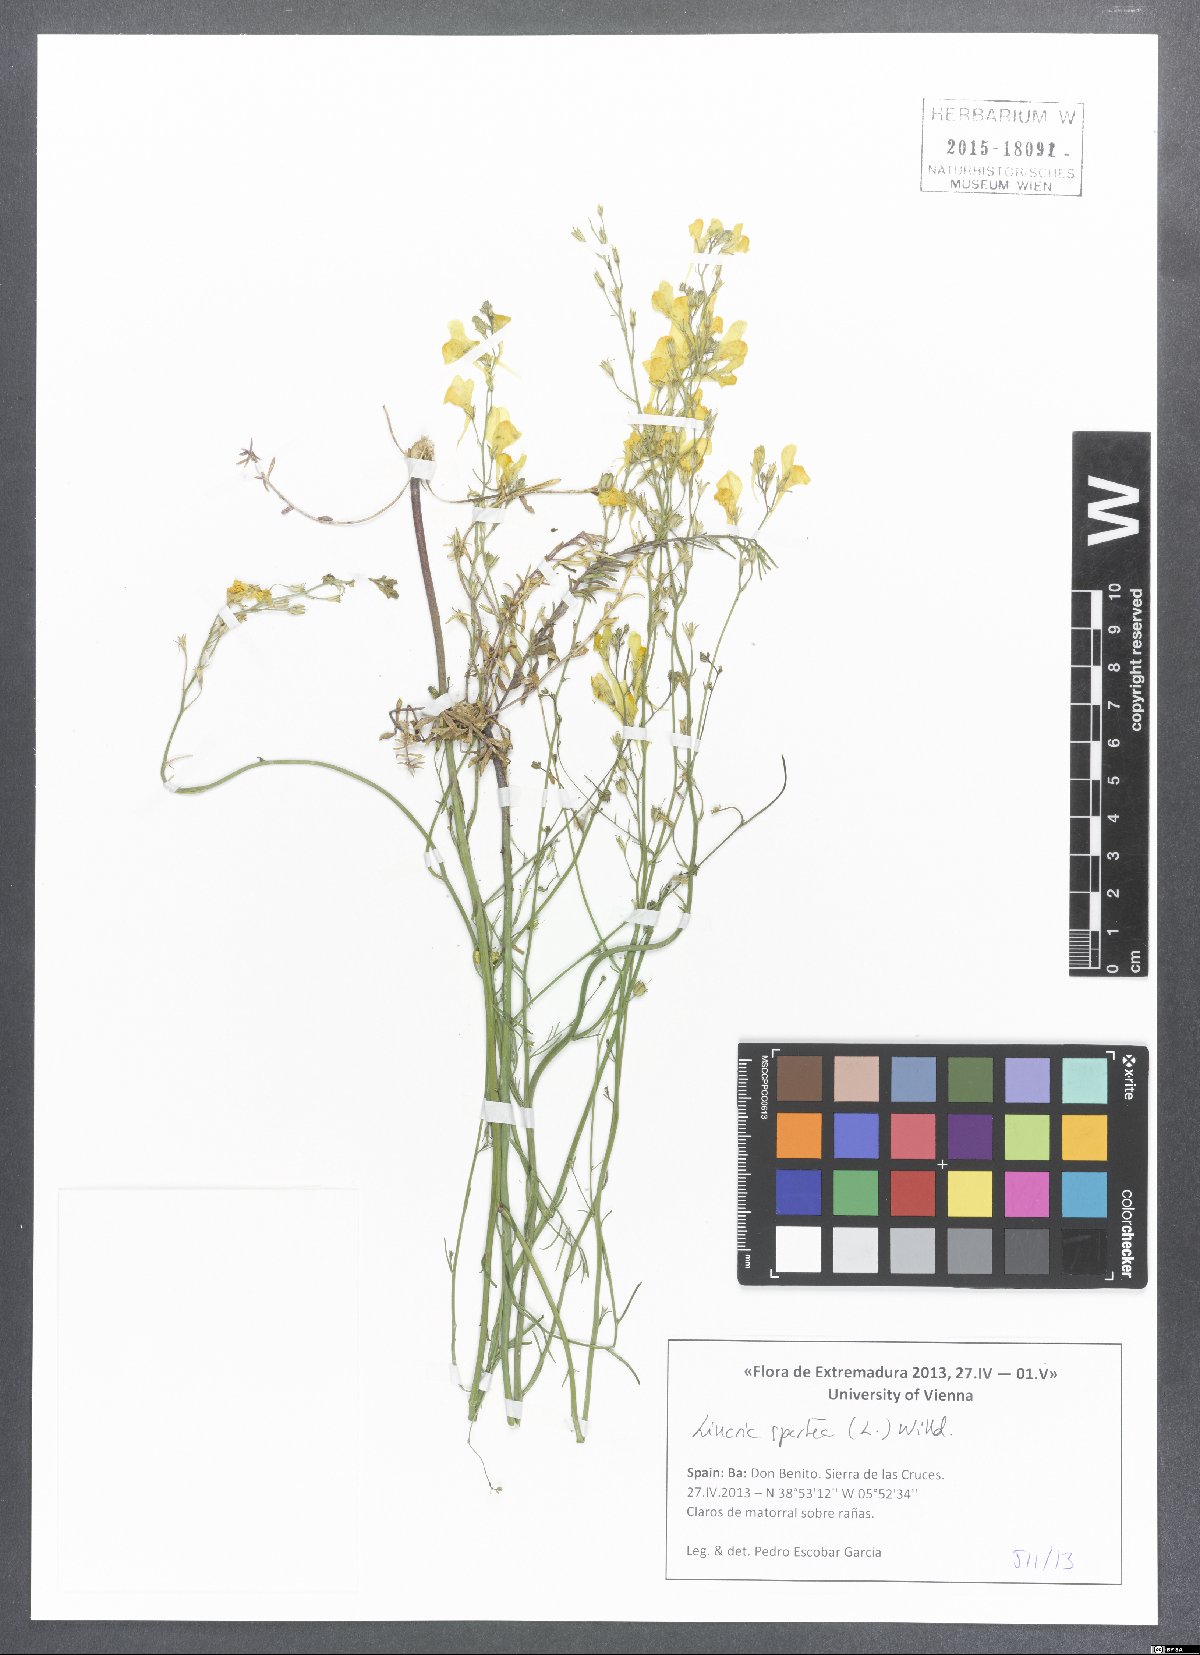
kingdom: Plantae
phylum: Tracheophyta
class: Magnoliopsida
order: Lamiales
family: Plantaginaceae
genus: Linaria
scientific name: Linaria spartea
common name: Ballast toadflax
